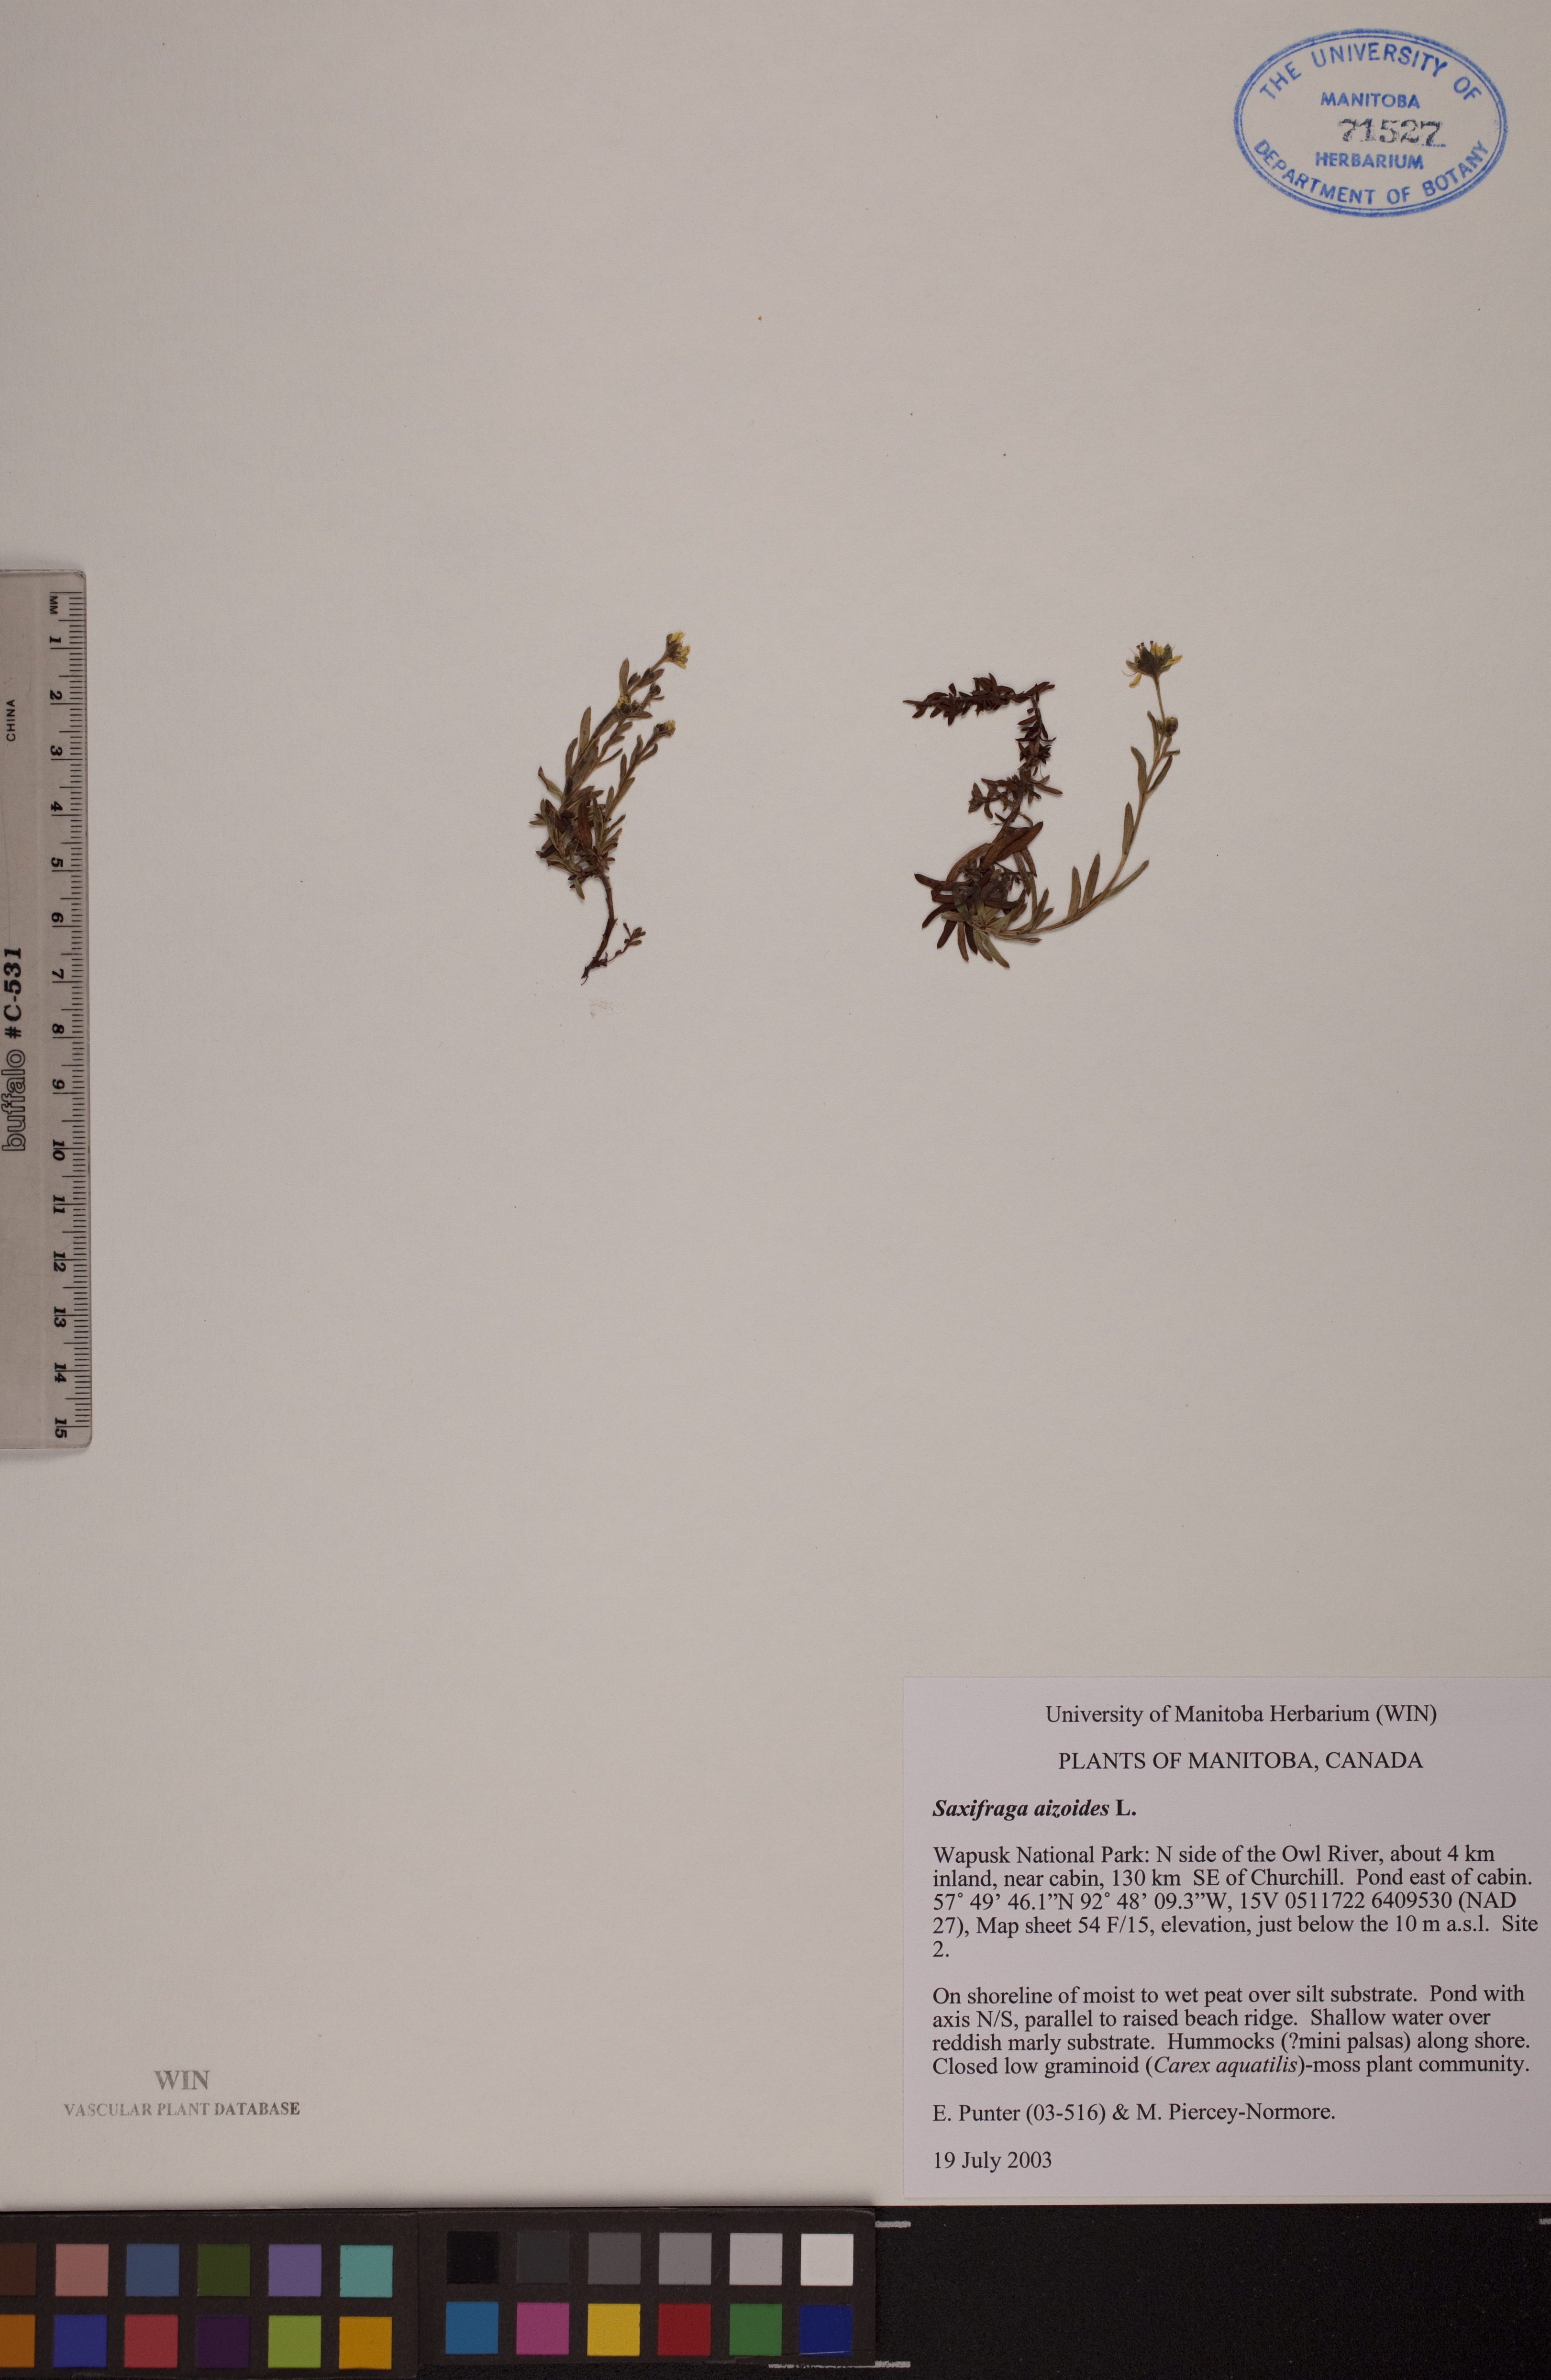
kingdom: Plantae
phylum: Tracheophyta
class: Magnoliopsida
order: Saxifragales
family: Saxifragaceae
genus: Saxifraga
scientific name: Saxifraga aizoides
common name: Yellow mountain saxifrage
